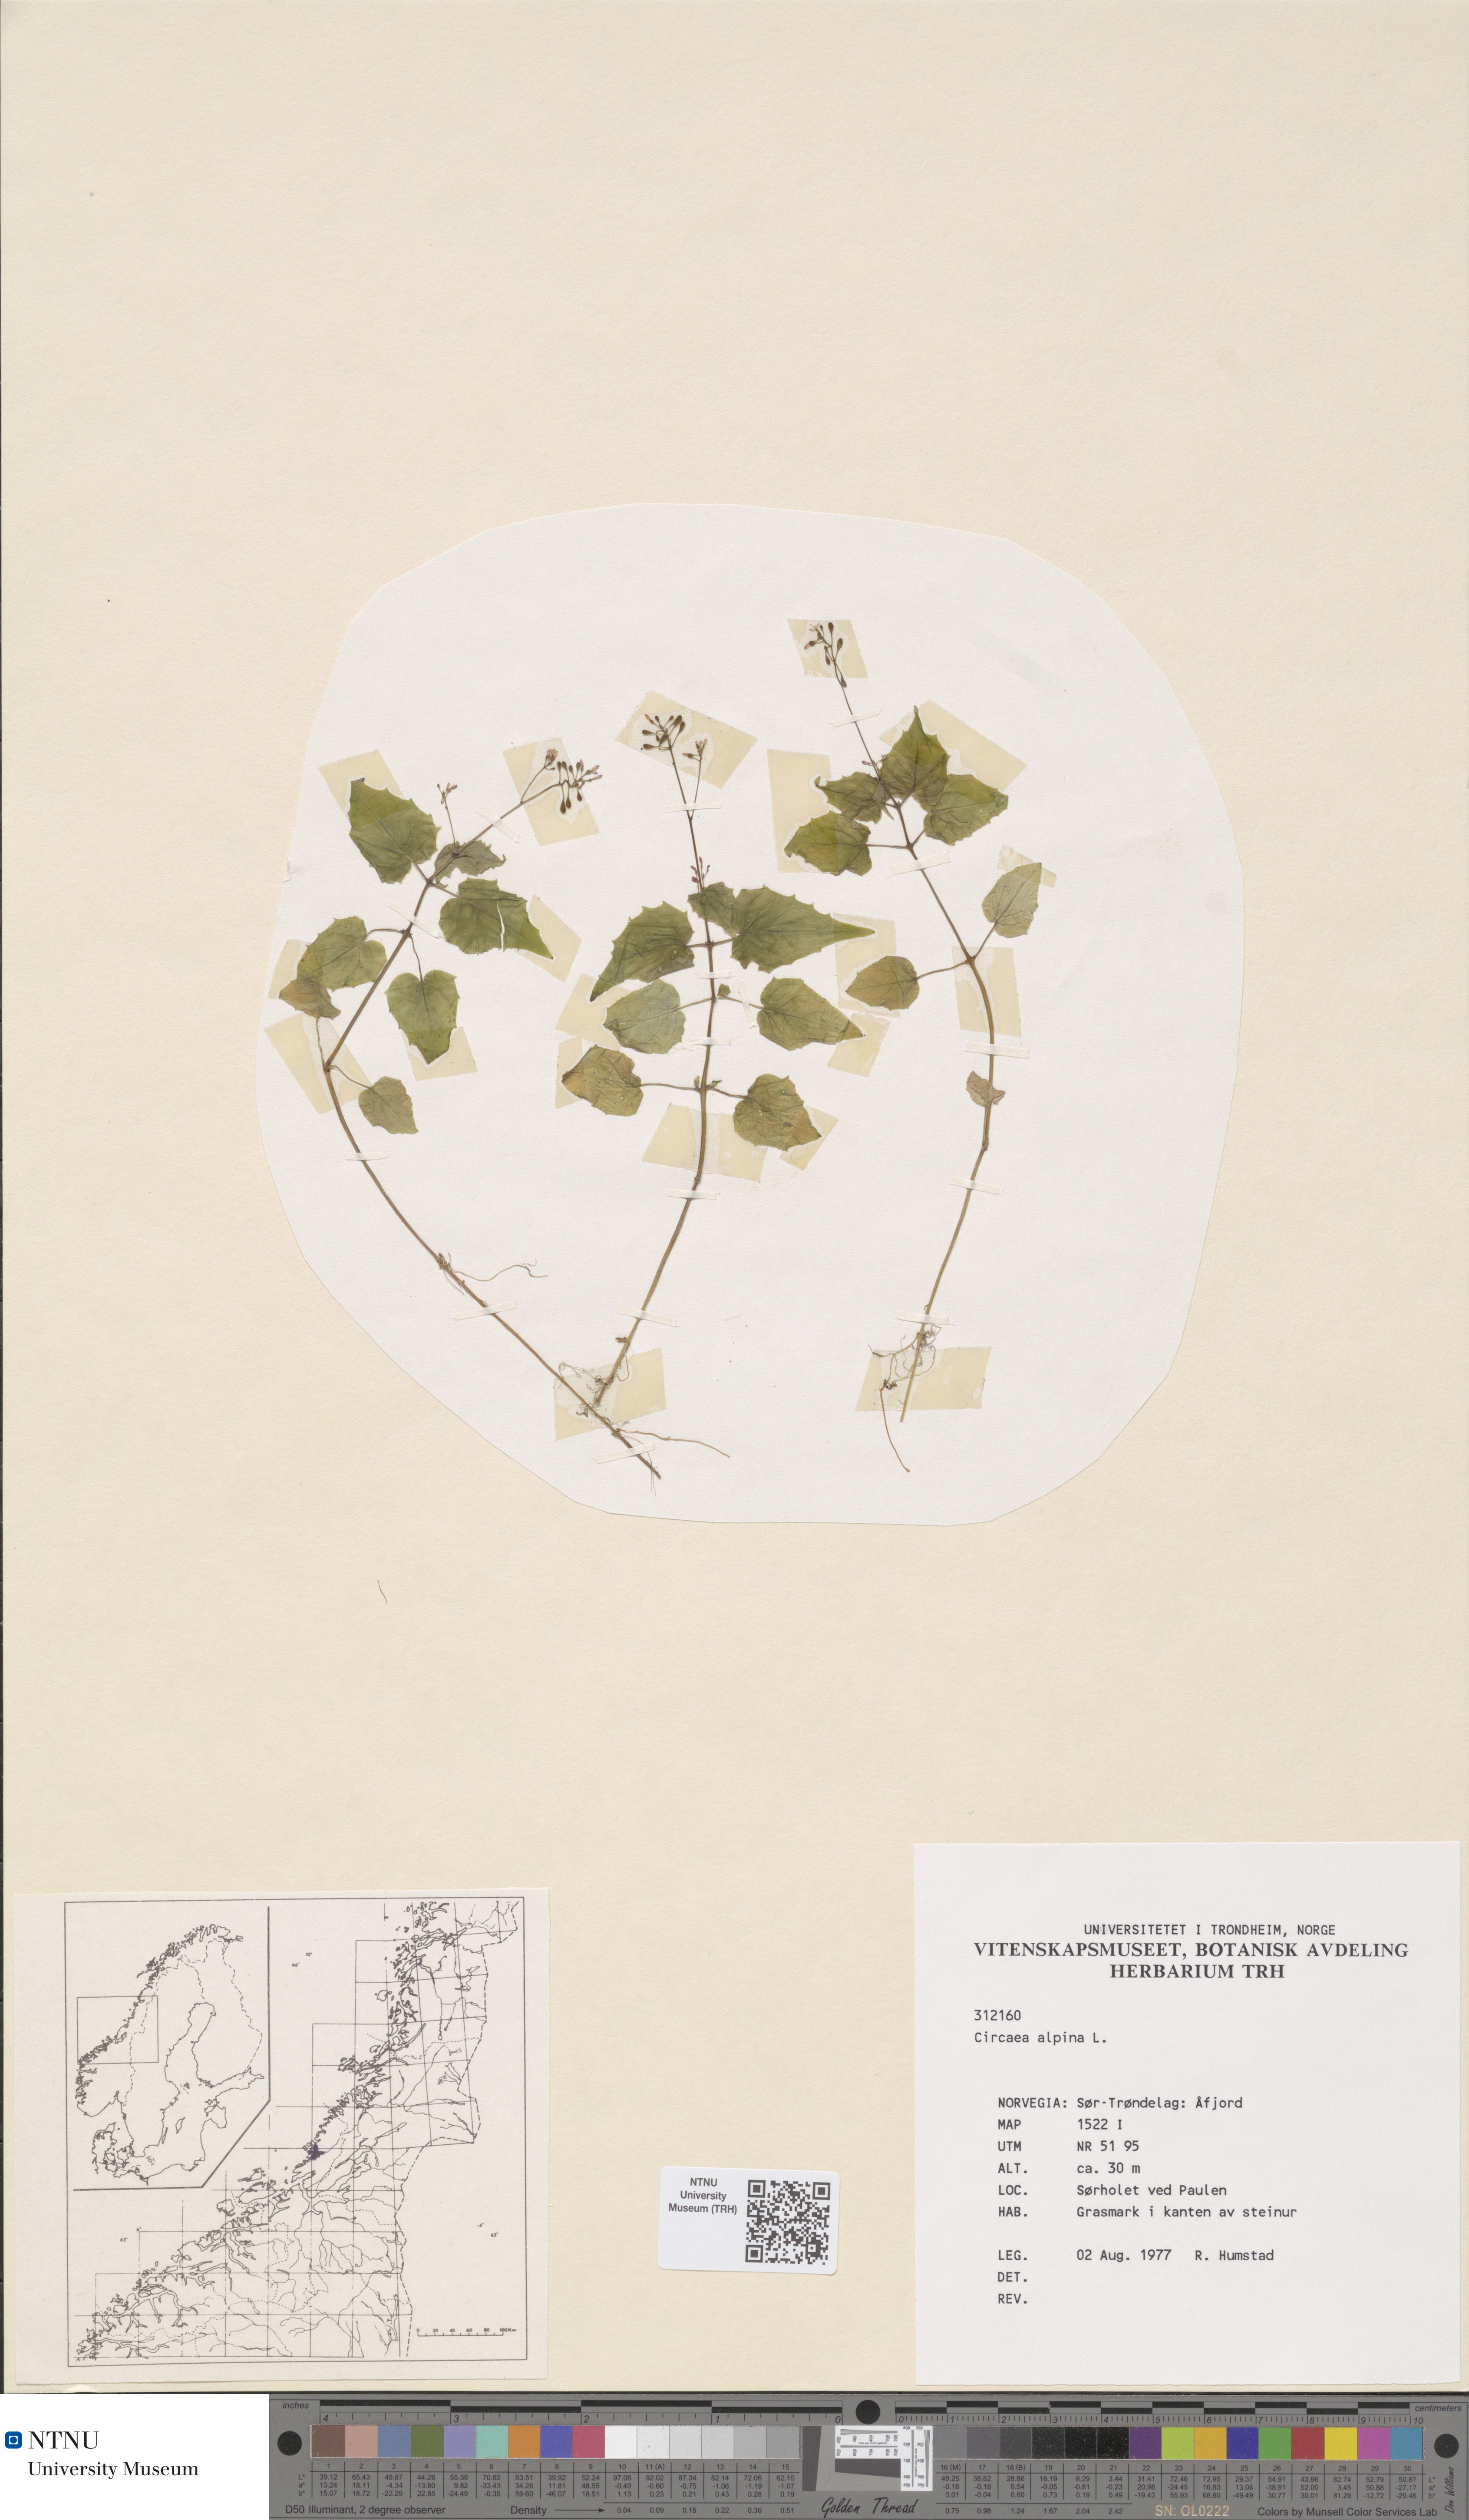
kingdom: Plantae
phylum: Tracheophyta
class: Magnoliopsida
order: Myrtales
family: Onagraceae
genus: Circaea
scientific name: Circaea alpina
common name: Alpine enchanter's-nightshade
